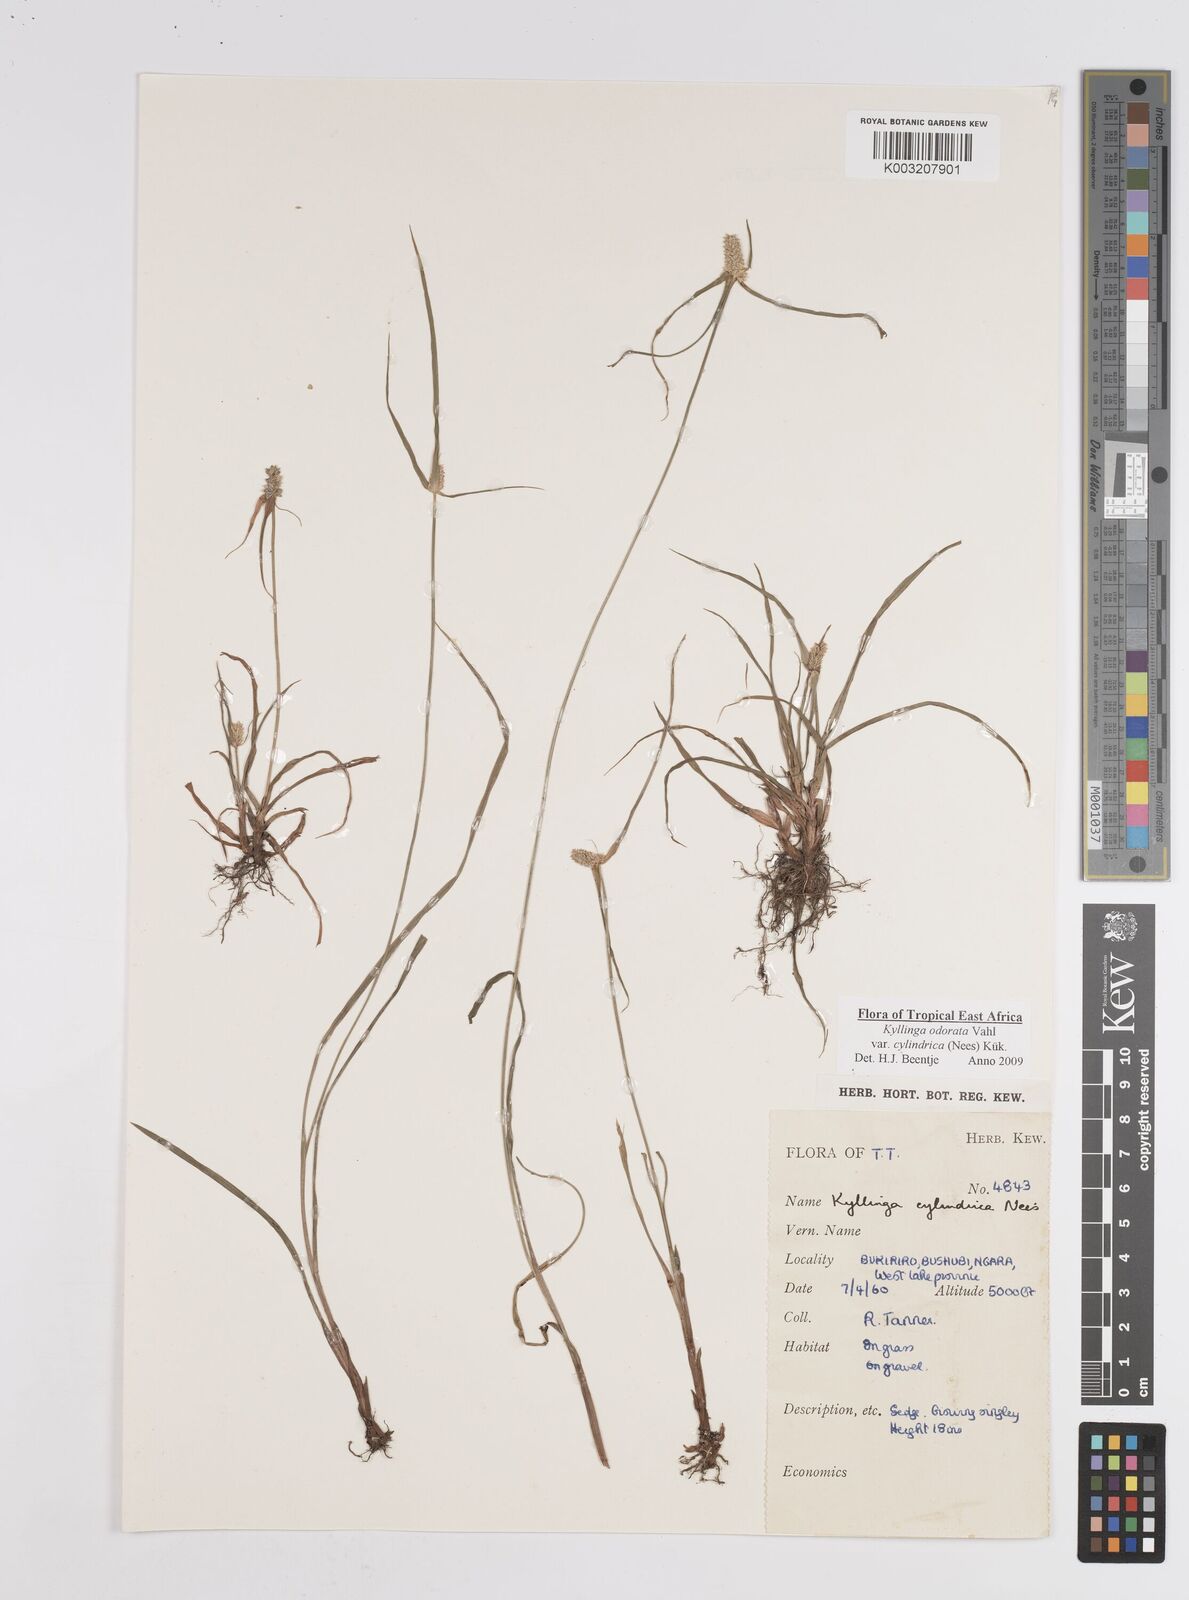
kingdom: Plantae
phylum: Tracheophyta
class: Liliopsida
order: Poales
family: Cyperaceae
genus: Cyperus
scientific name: Cyperus
